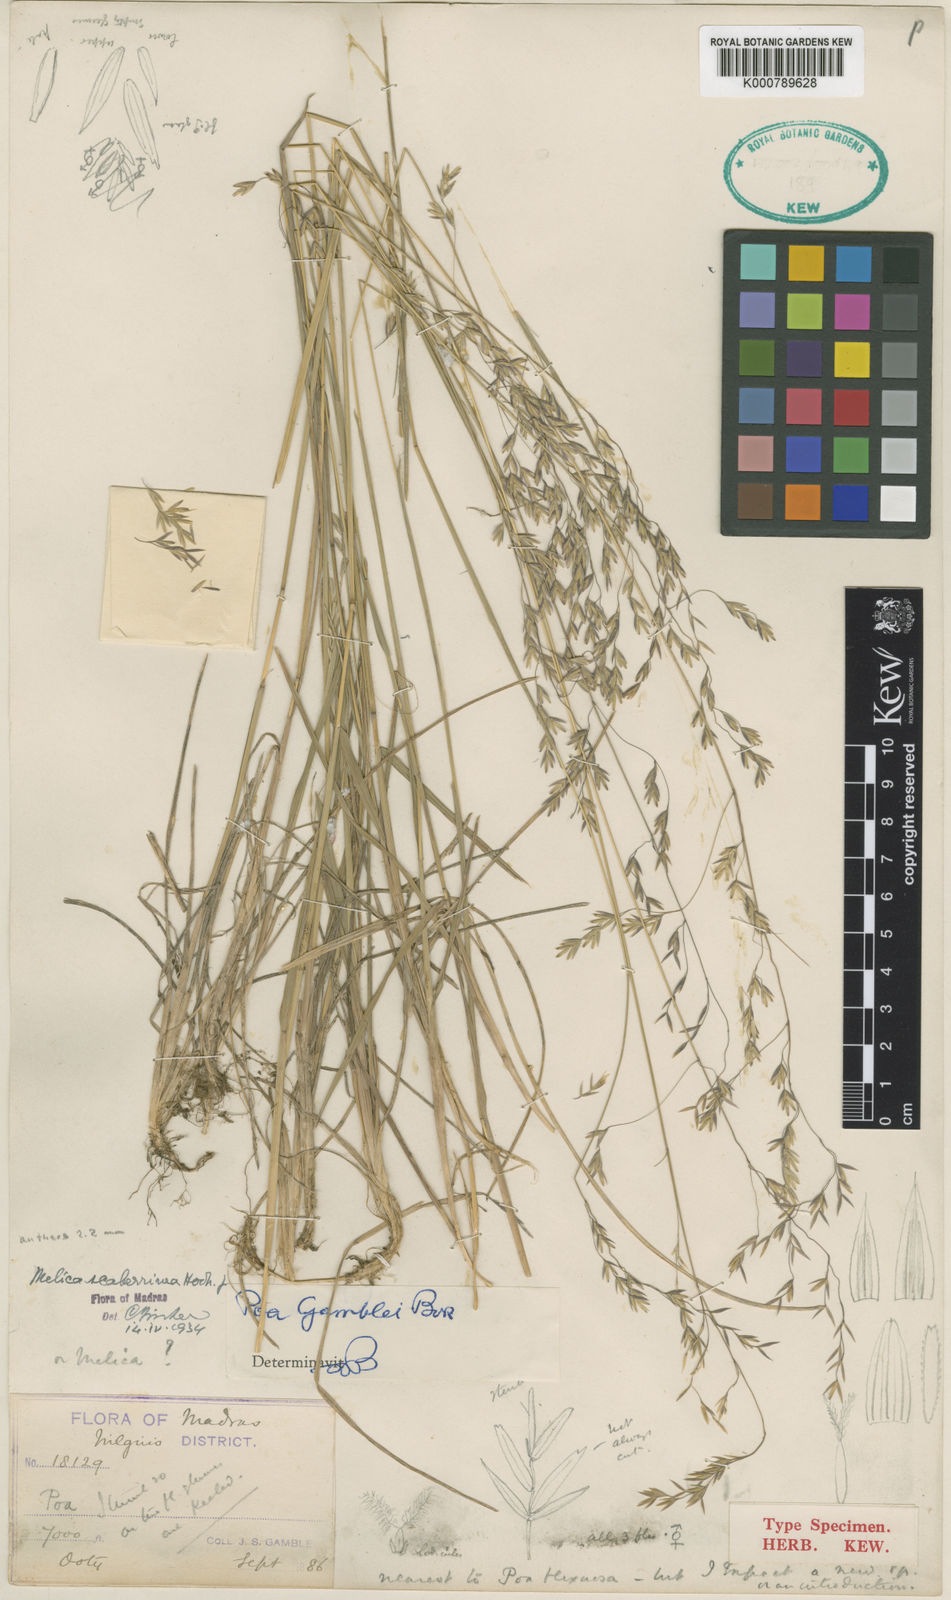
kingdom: Plantae
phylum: Tracheophyta
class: Liliopsida
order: Poales
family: Poaceae
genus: Poa
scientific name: Poa gamblei
